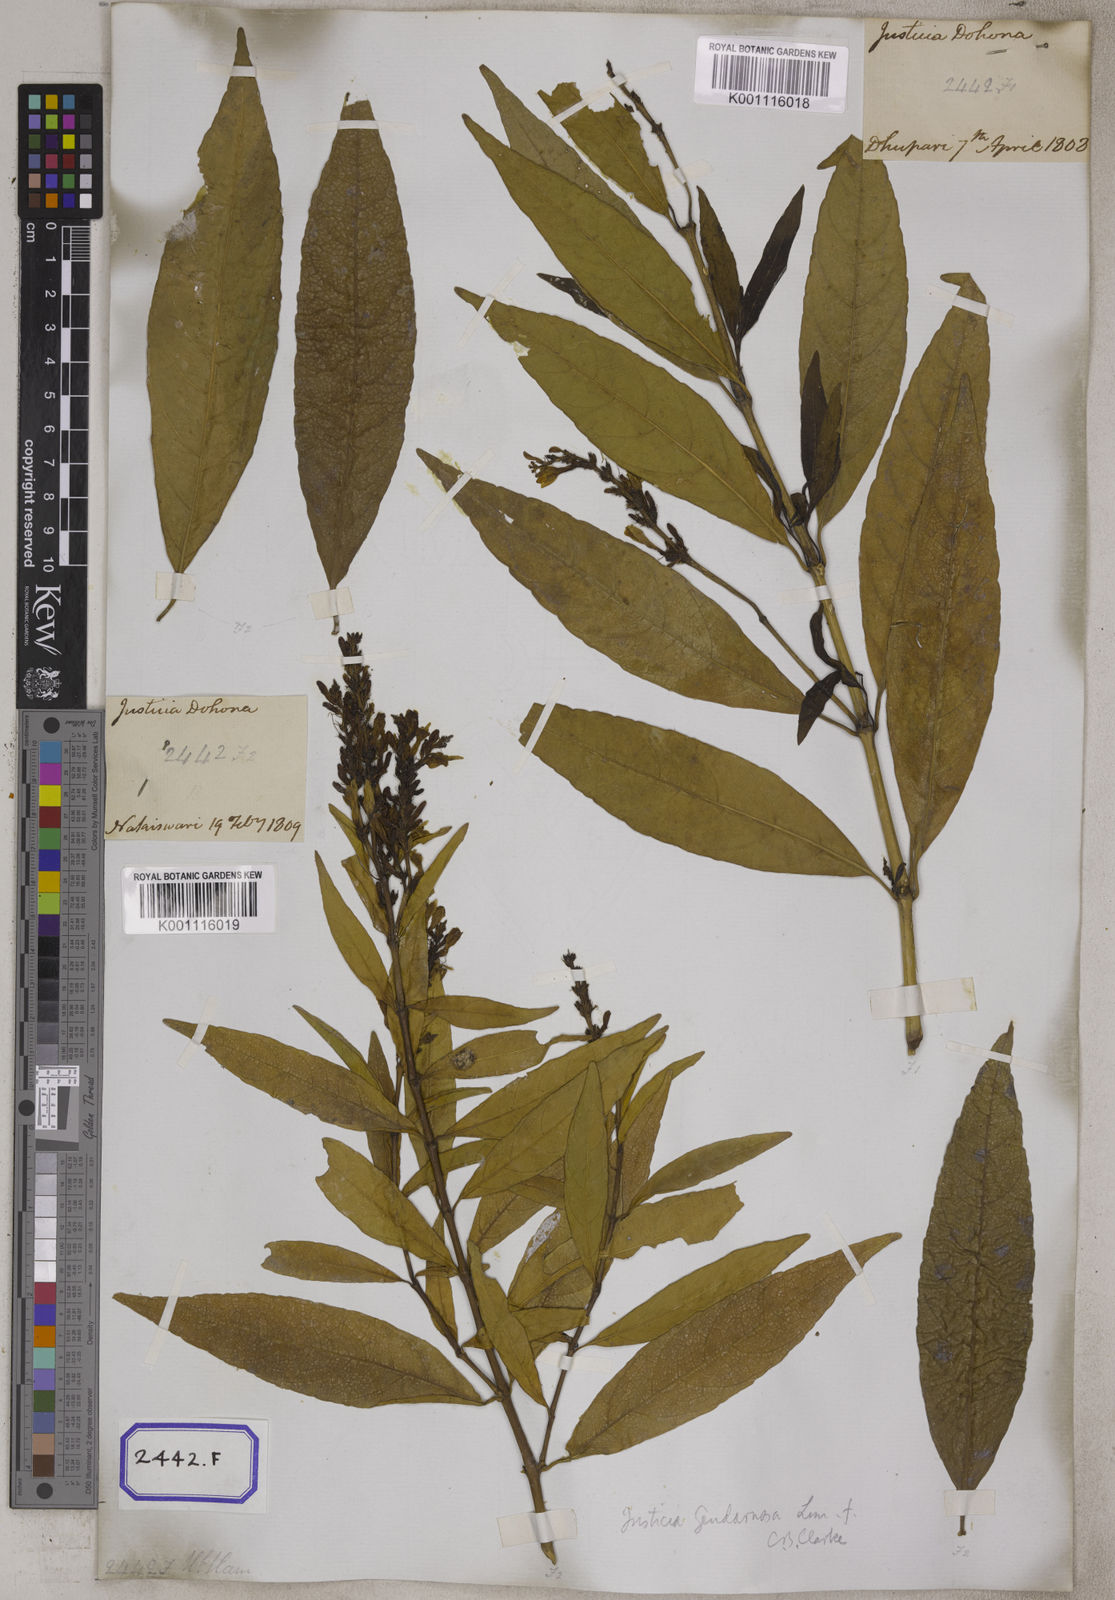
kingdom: Plantae
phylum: Tracheophyta
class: Magnoliopsida
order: Lamiales
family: Acanthaceae
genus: Rostellularia
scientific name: Rostellularia procumbens
